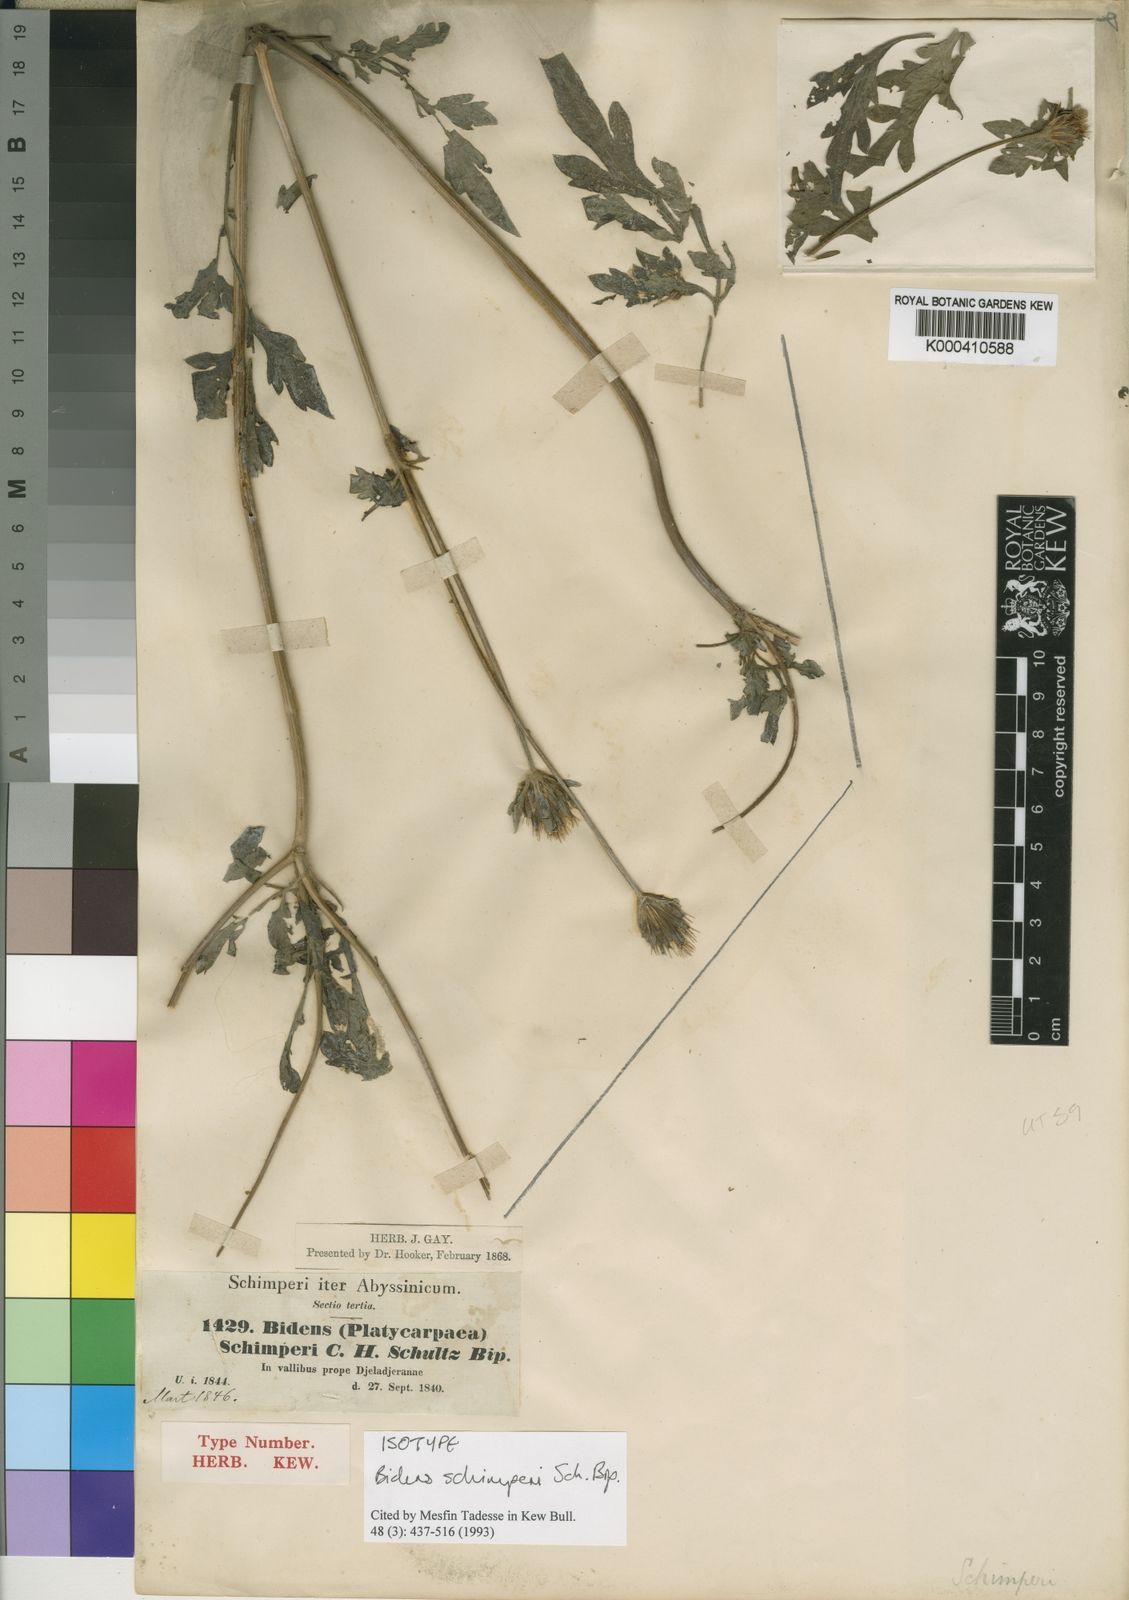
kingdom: Plantae
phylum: Tracheophyta
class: Magnoliopsida
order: Asterales
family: Asteraceae
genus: Bidens
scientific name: Bidens schimperi
